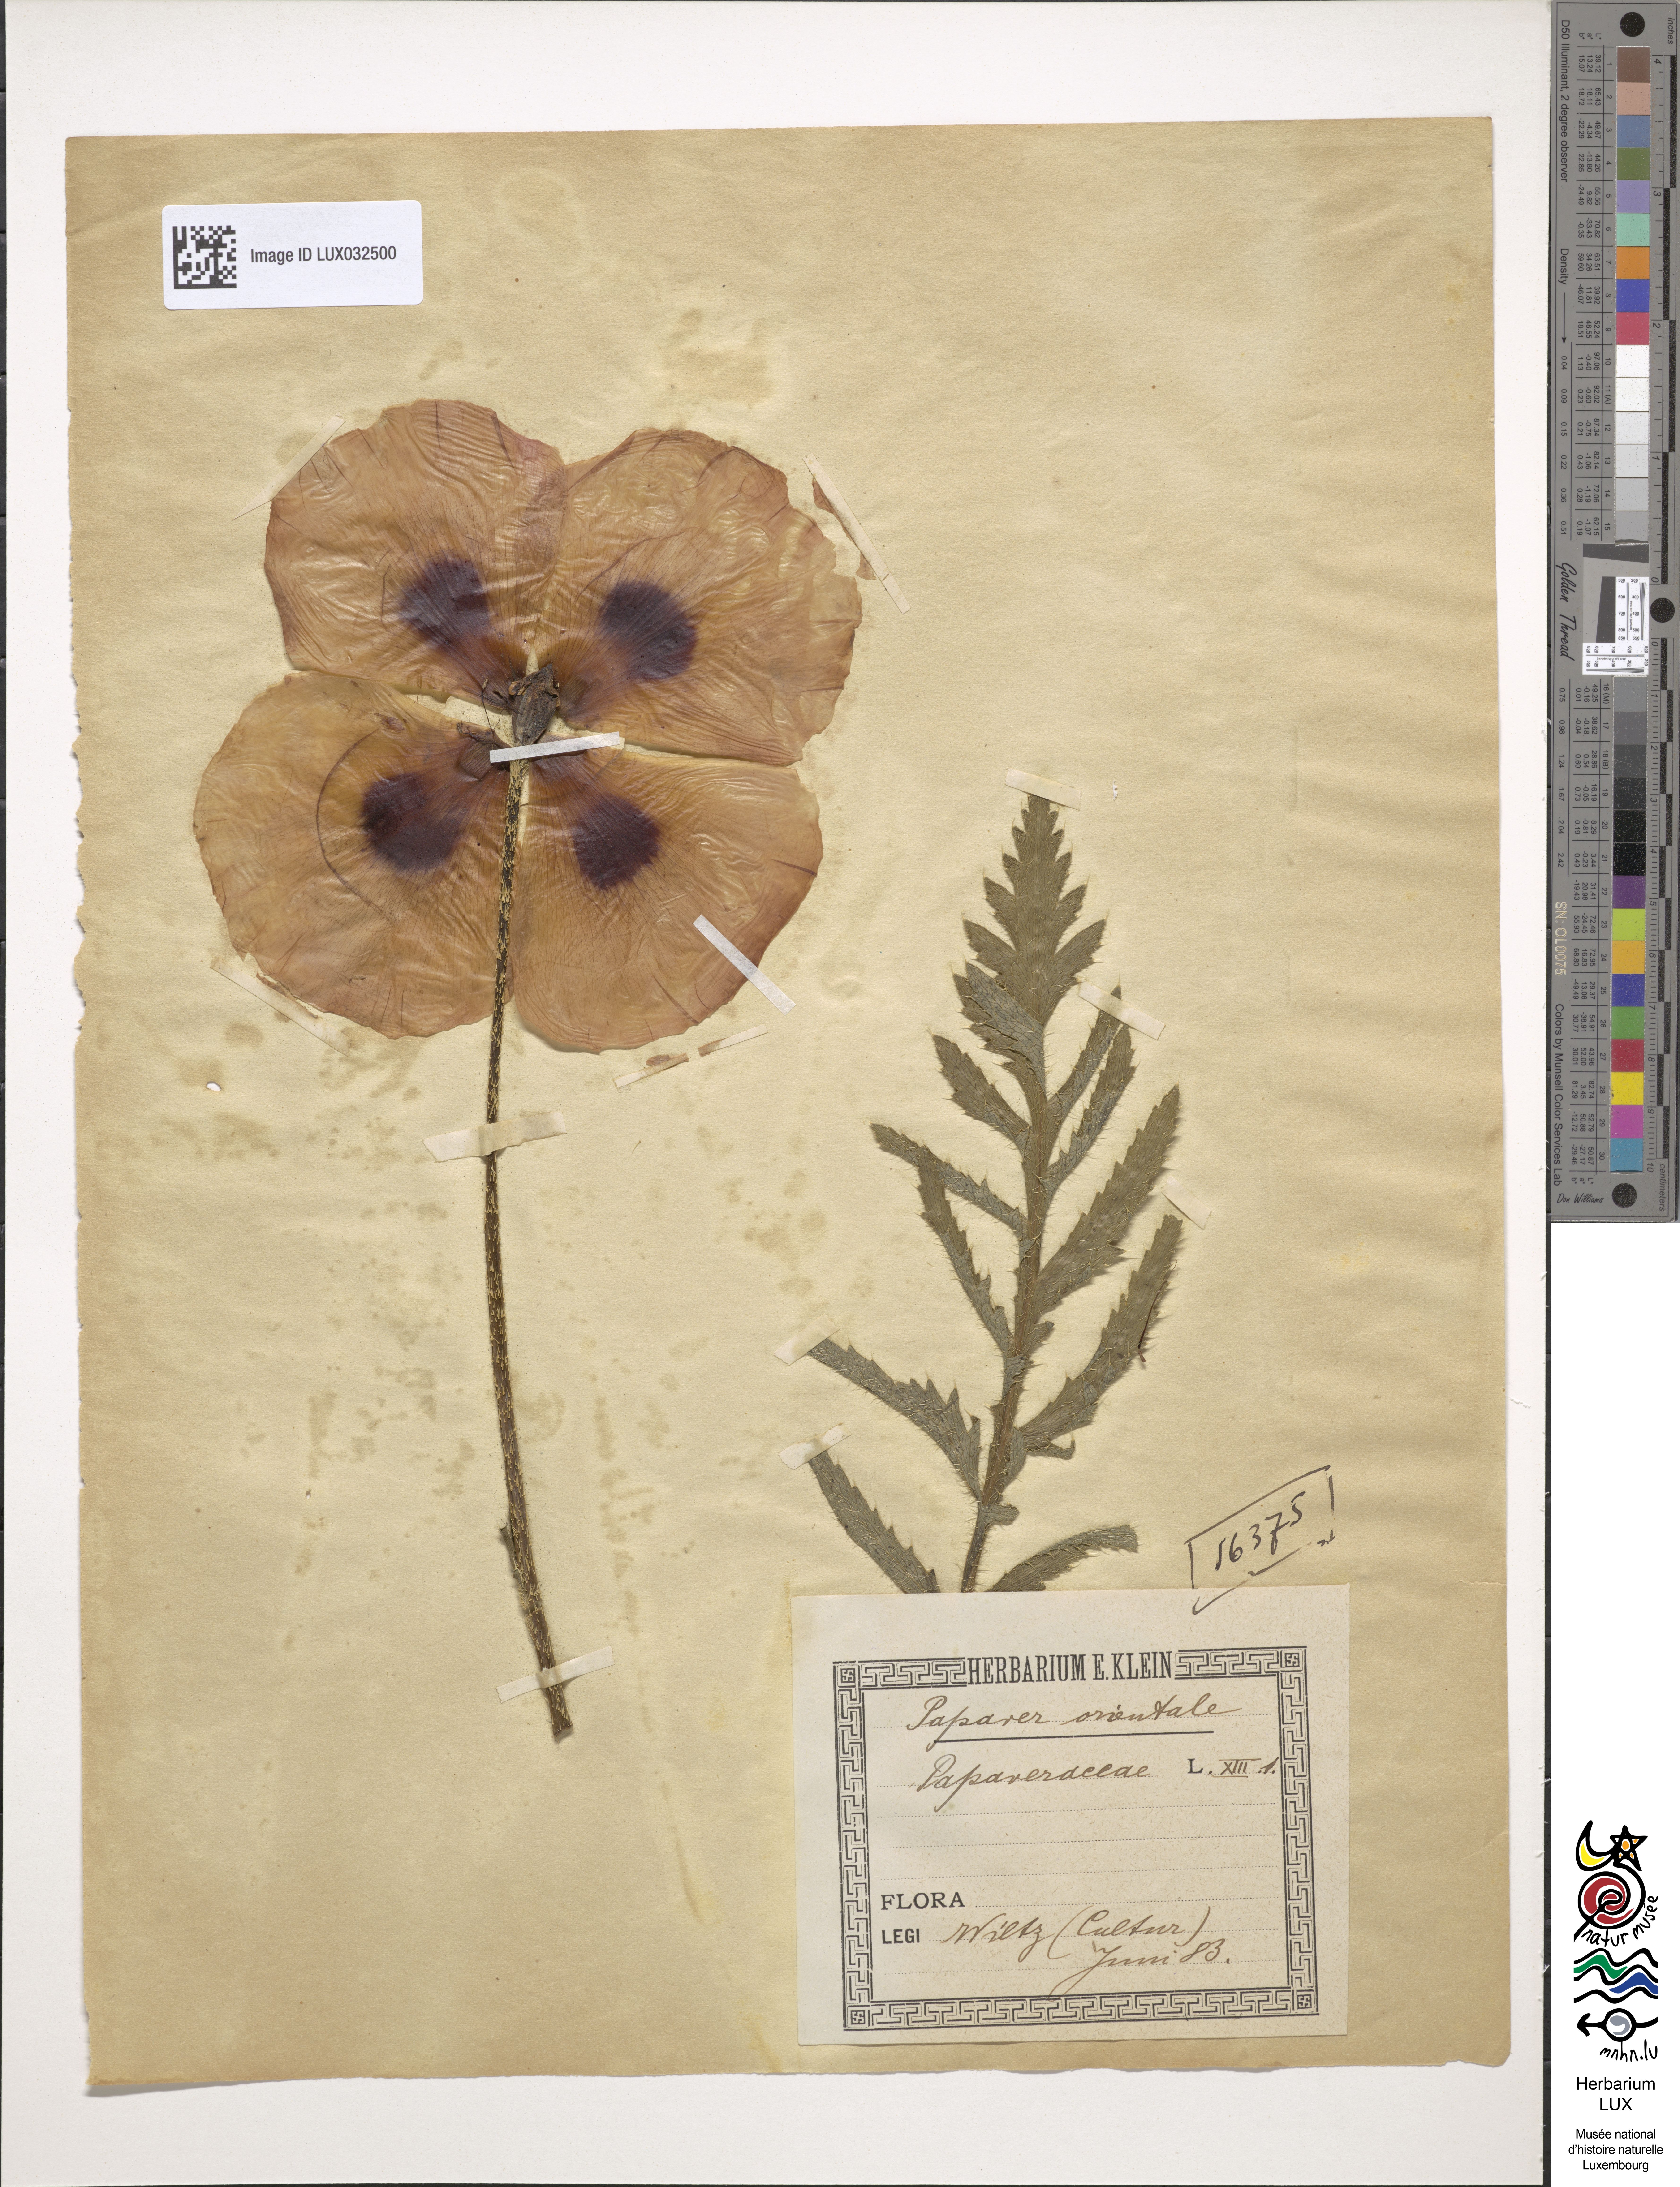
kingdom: Plantae
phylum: Tracheophyta
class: Magnoliopsida
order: Ranunculales
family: Papaveraceae
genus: Papaver
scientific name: Papaver orientale
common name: Oriental poppy
